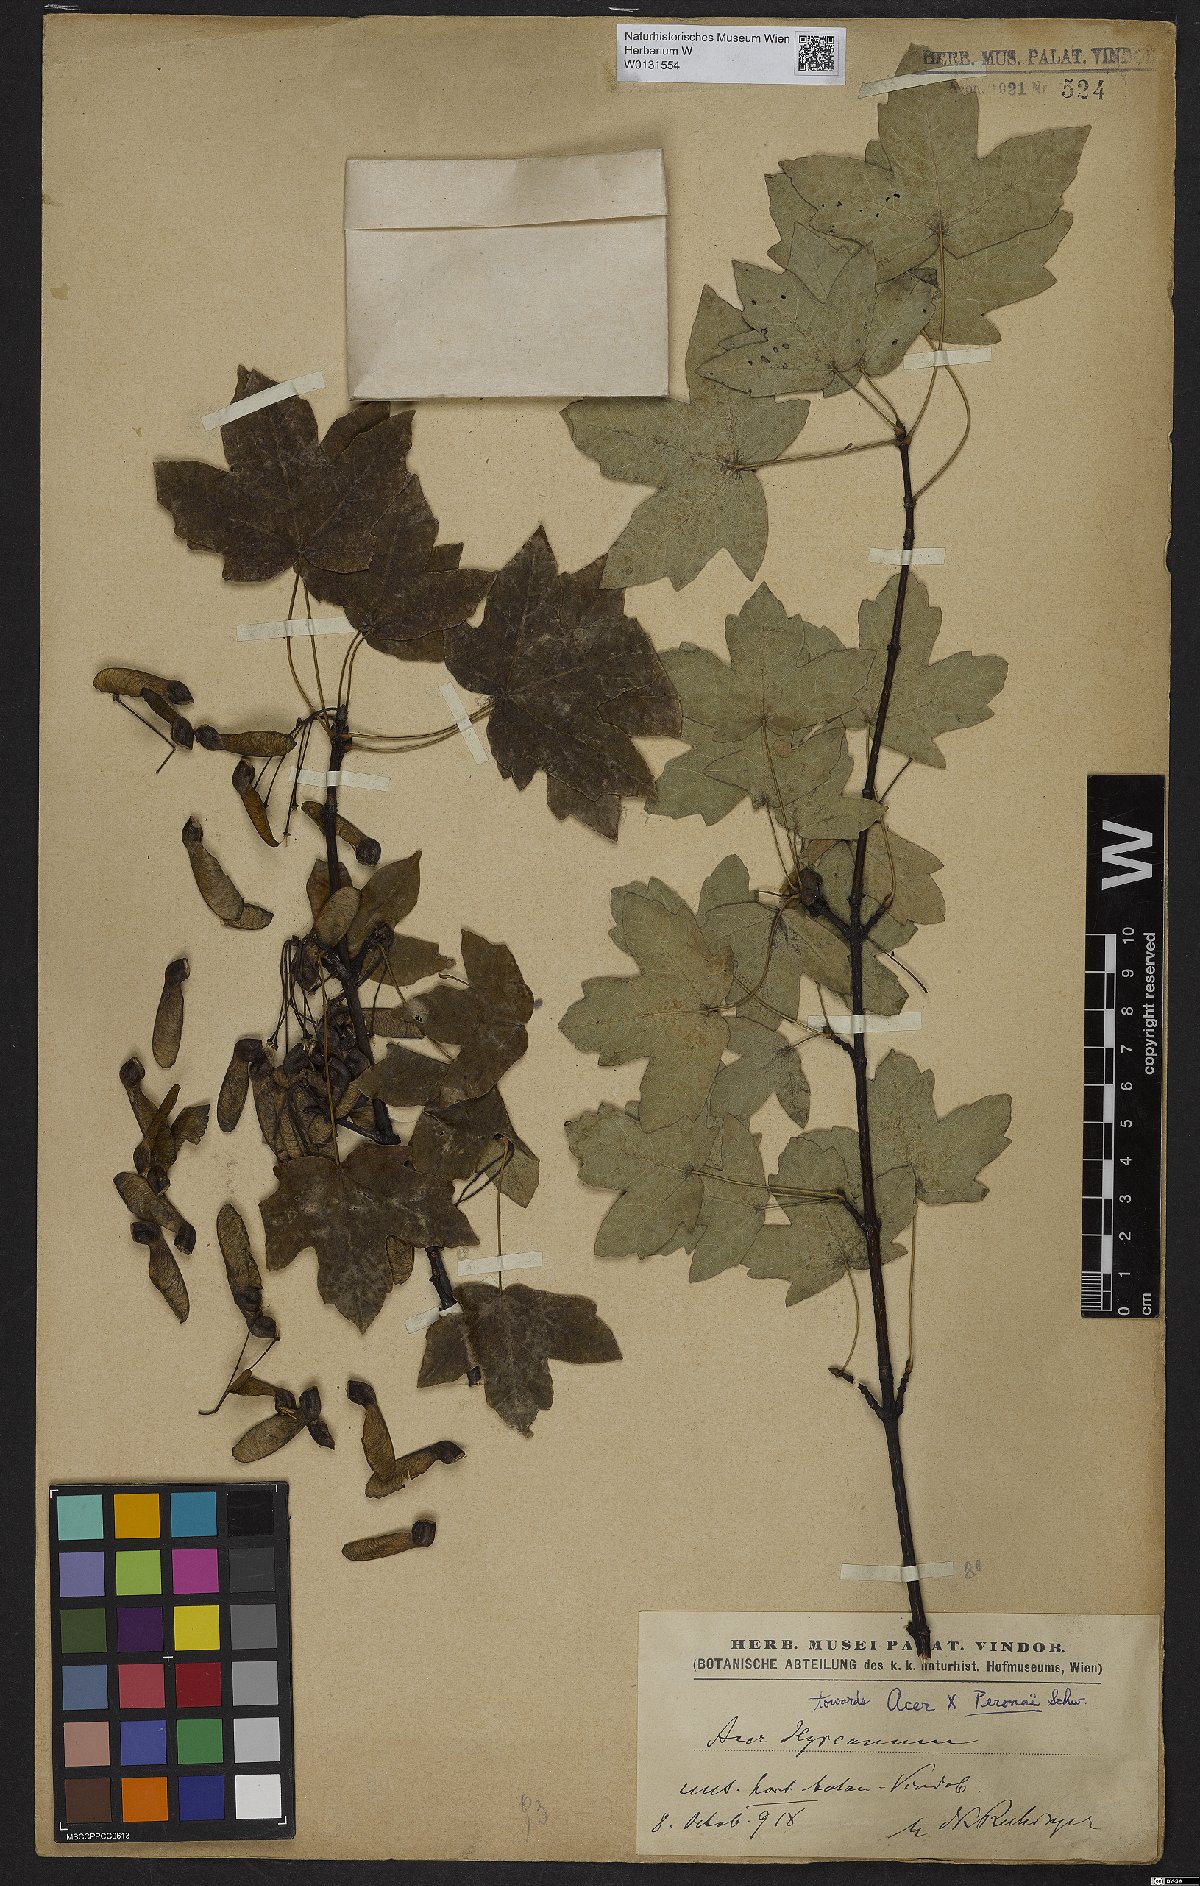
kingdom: Plantae
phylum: Tracheophyta
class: Magnoliopsida
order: Sapindales
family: Aceraceae
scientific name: Aceraceae
